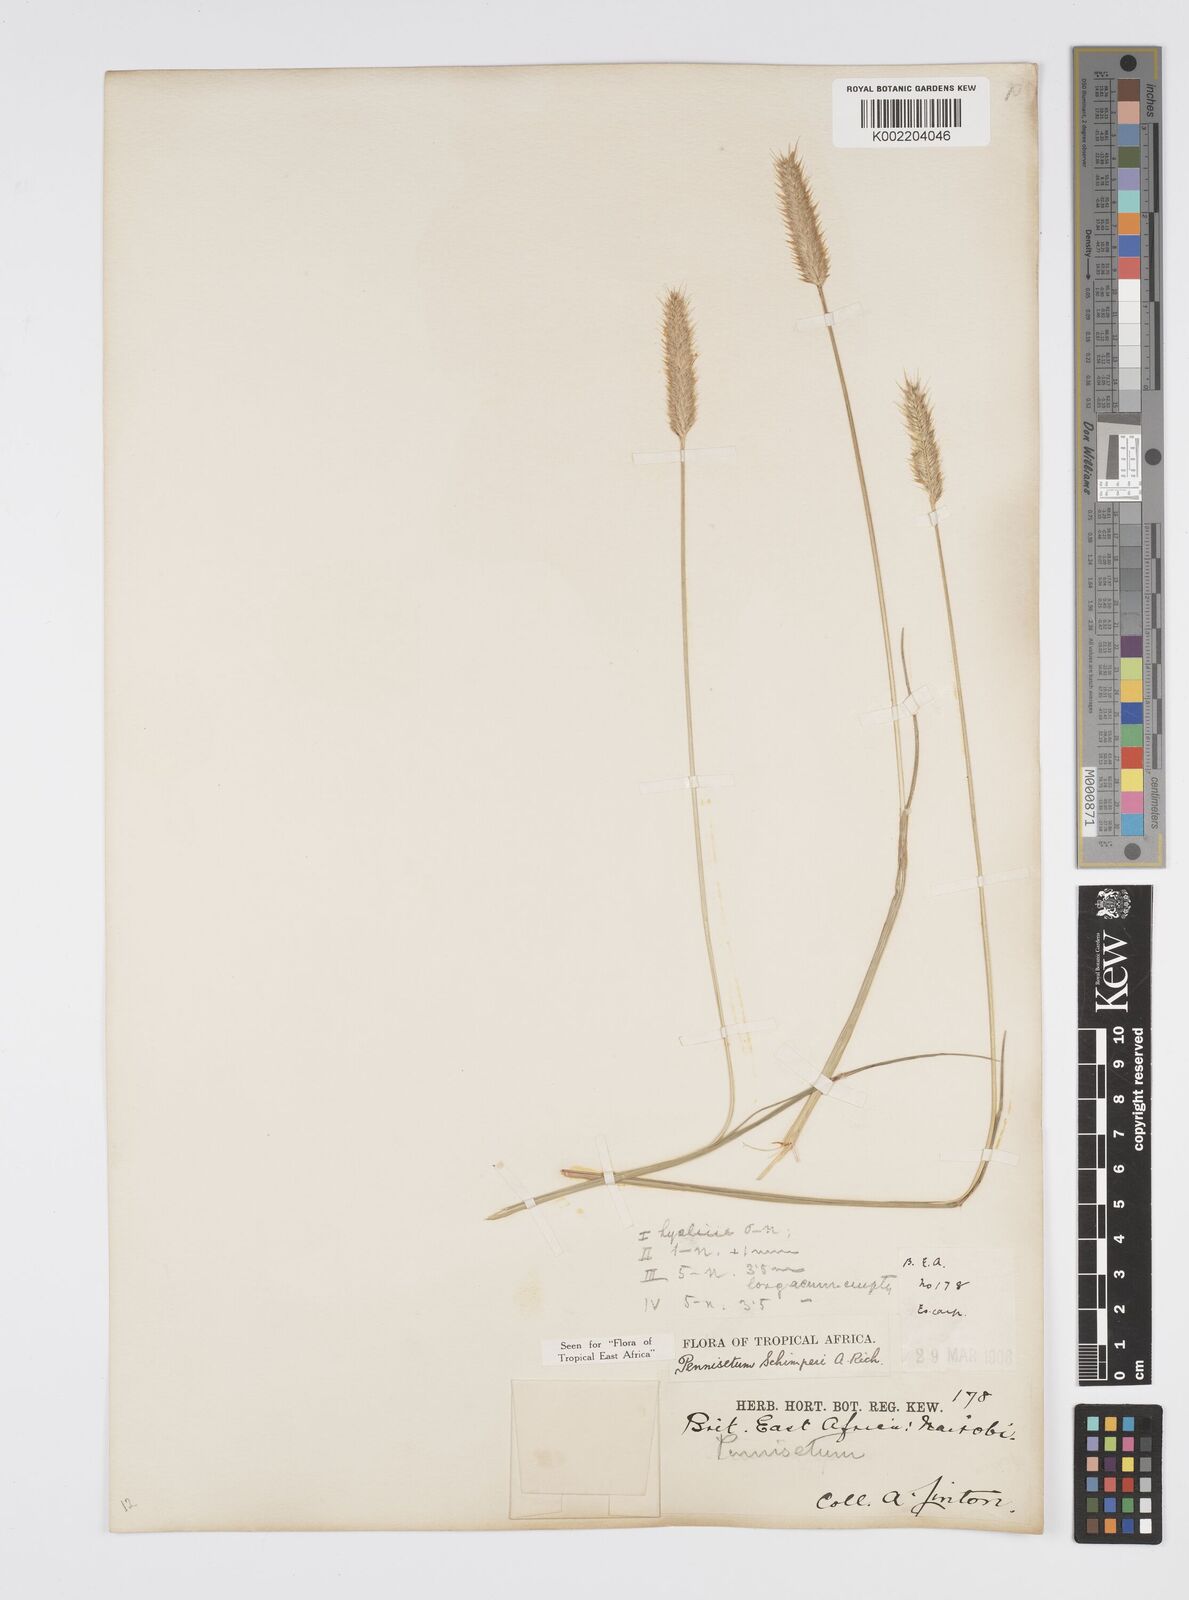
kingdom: Plantae
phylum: Tracheophyta
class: Liliopsida
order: Poales
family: Poaceae
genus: Cenchrus
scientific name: Cenchrus sphacelatus
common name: Bulgras
